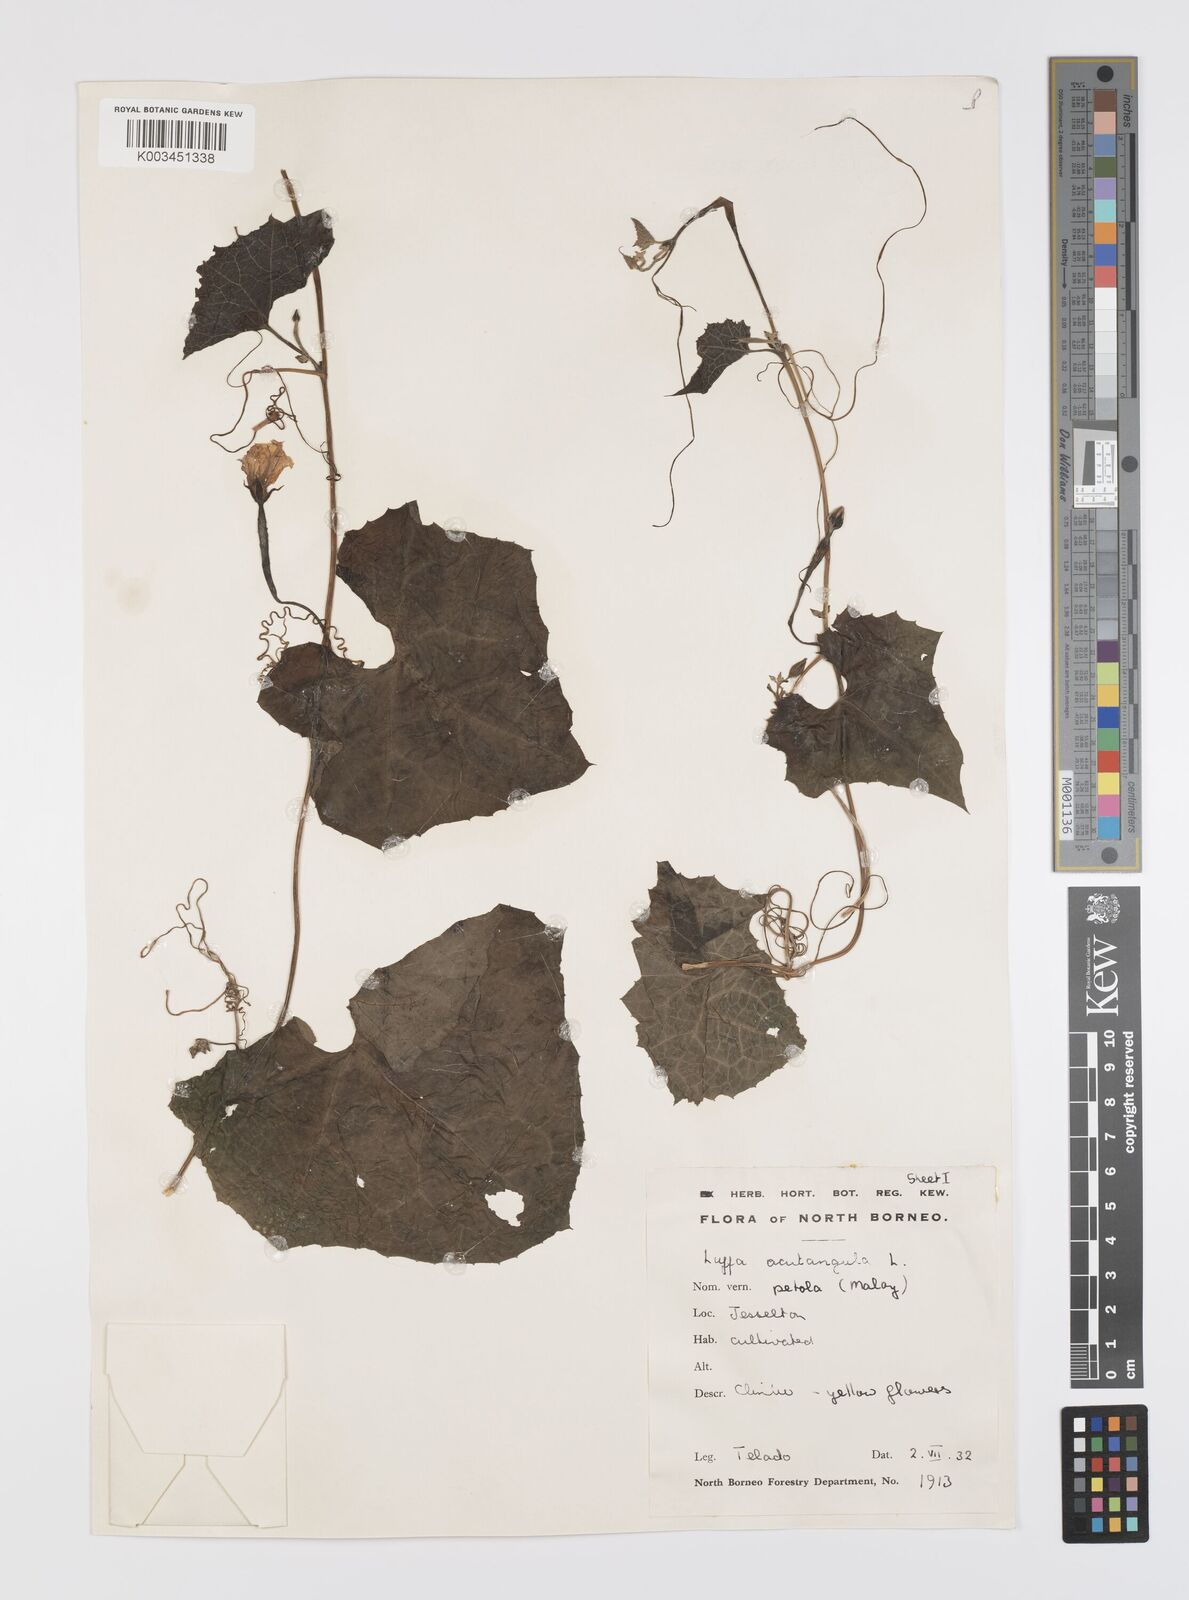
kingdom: Plantae
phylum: Tracheophyta
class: Magnoliopsida
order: Cucurbitales
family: Cucurbitaceae
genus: Luffa
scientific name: Luffa acutangula
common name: Sinkwa towelsponge
